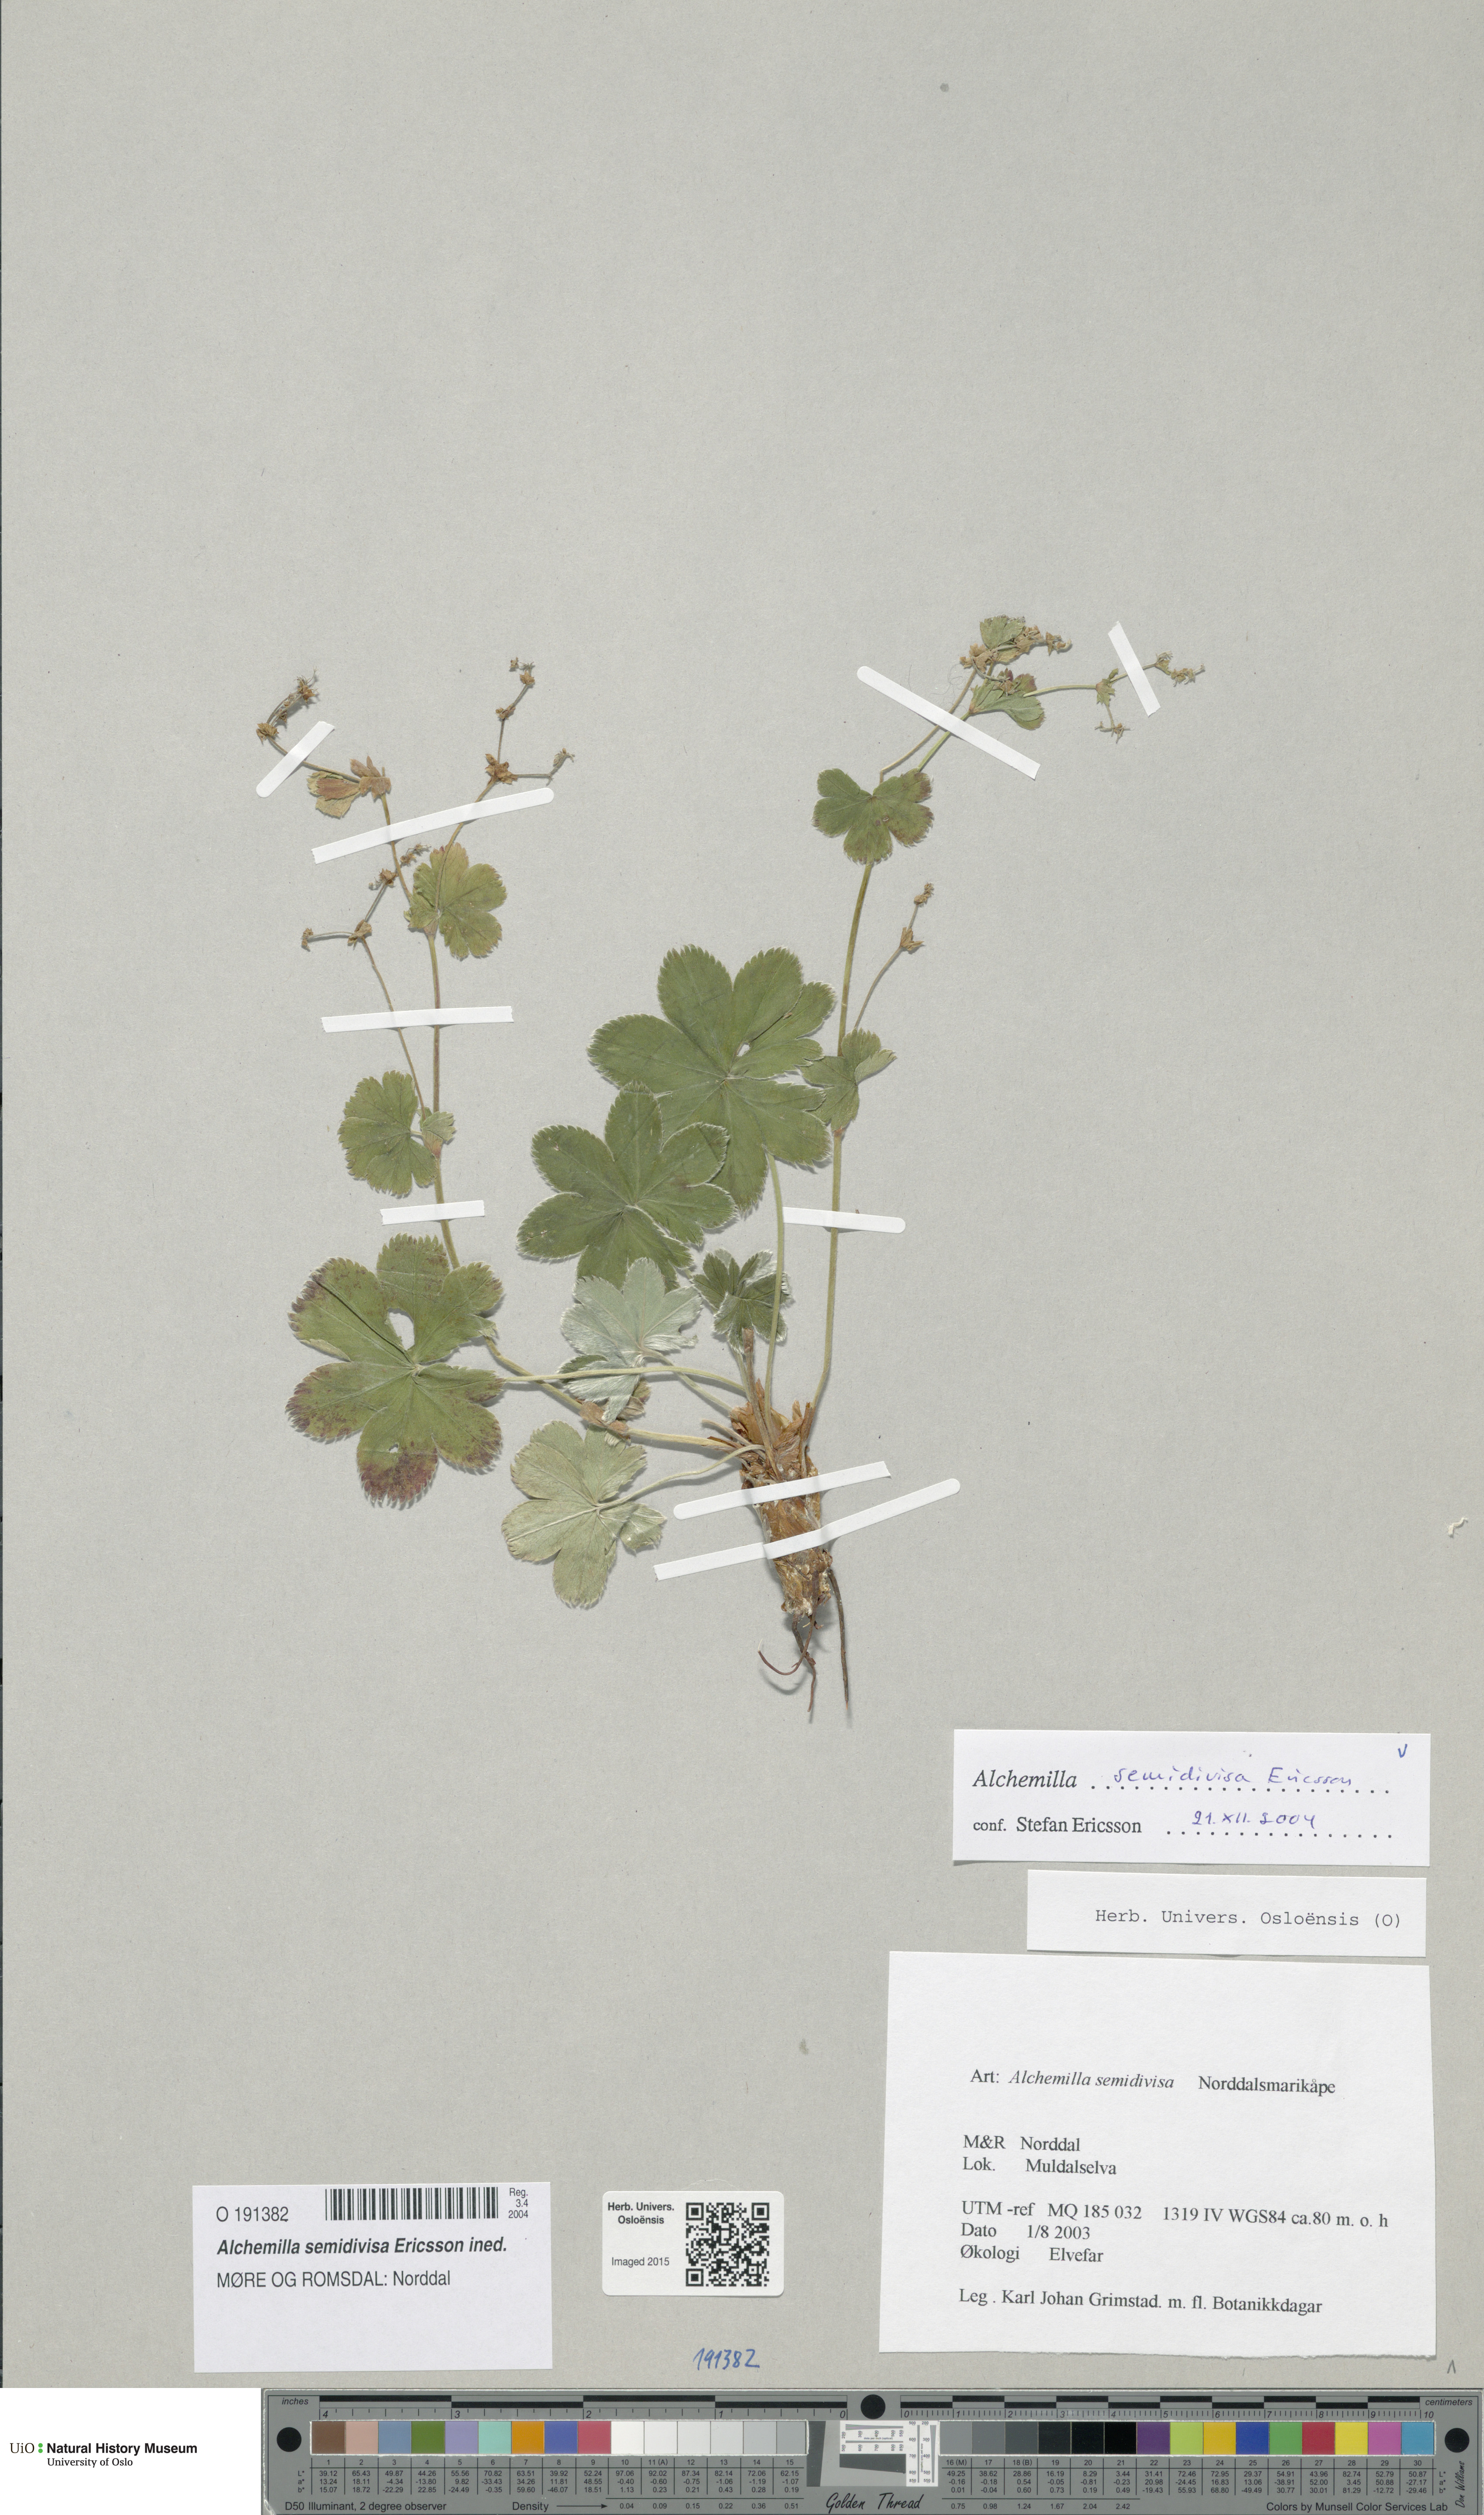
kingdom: Plantae
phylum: Tracheophyta
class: Magnoliopsida
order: Rosales
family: Rosaceae
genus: Alchemilla
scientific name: Alchemilla semidivisa
